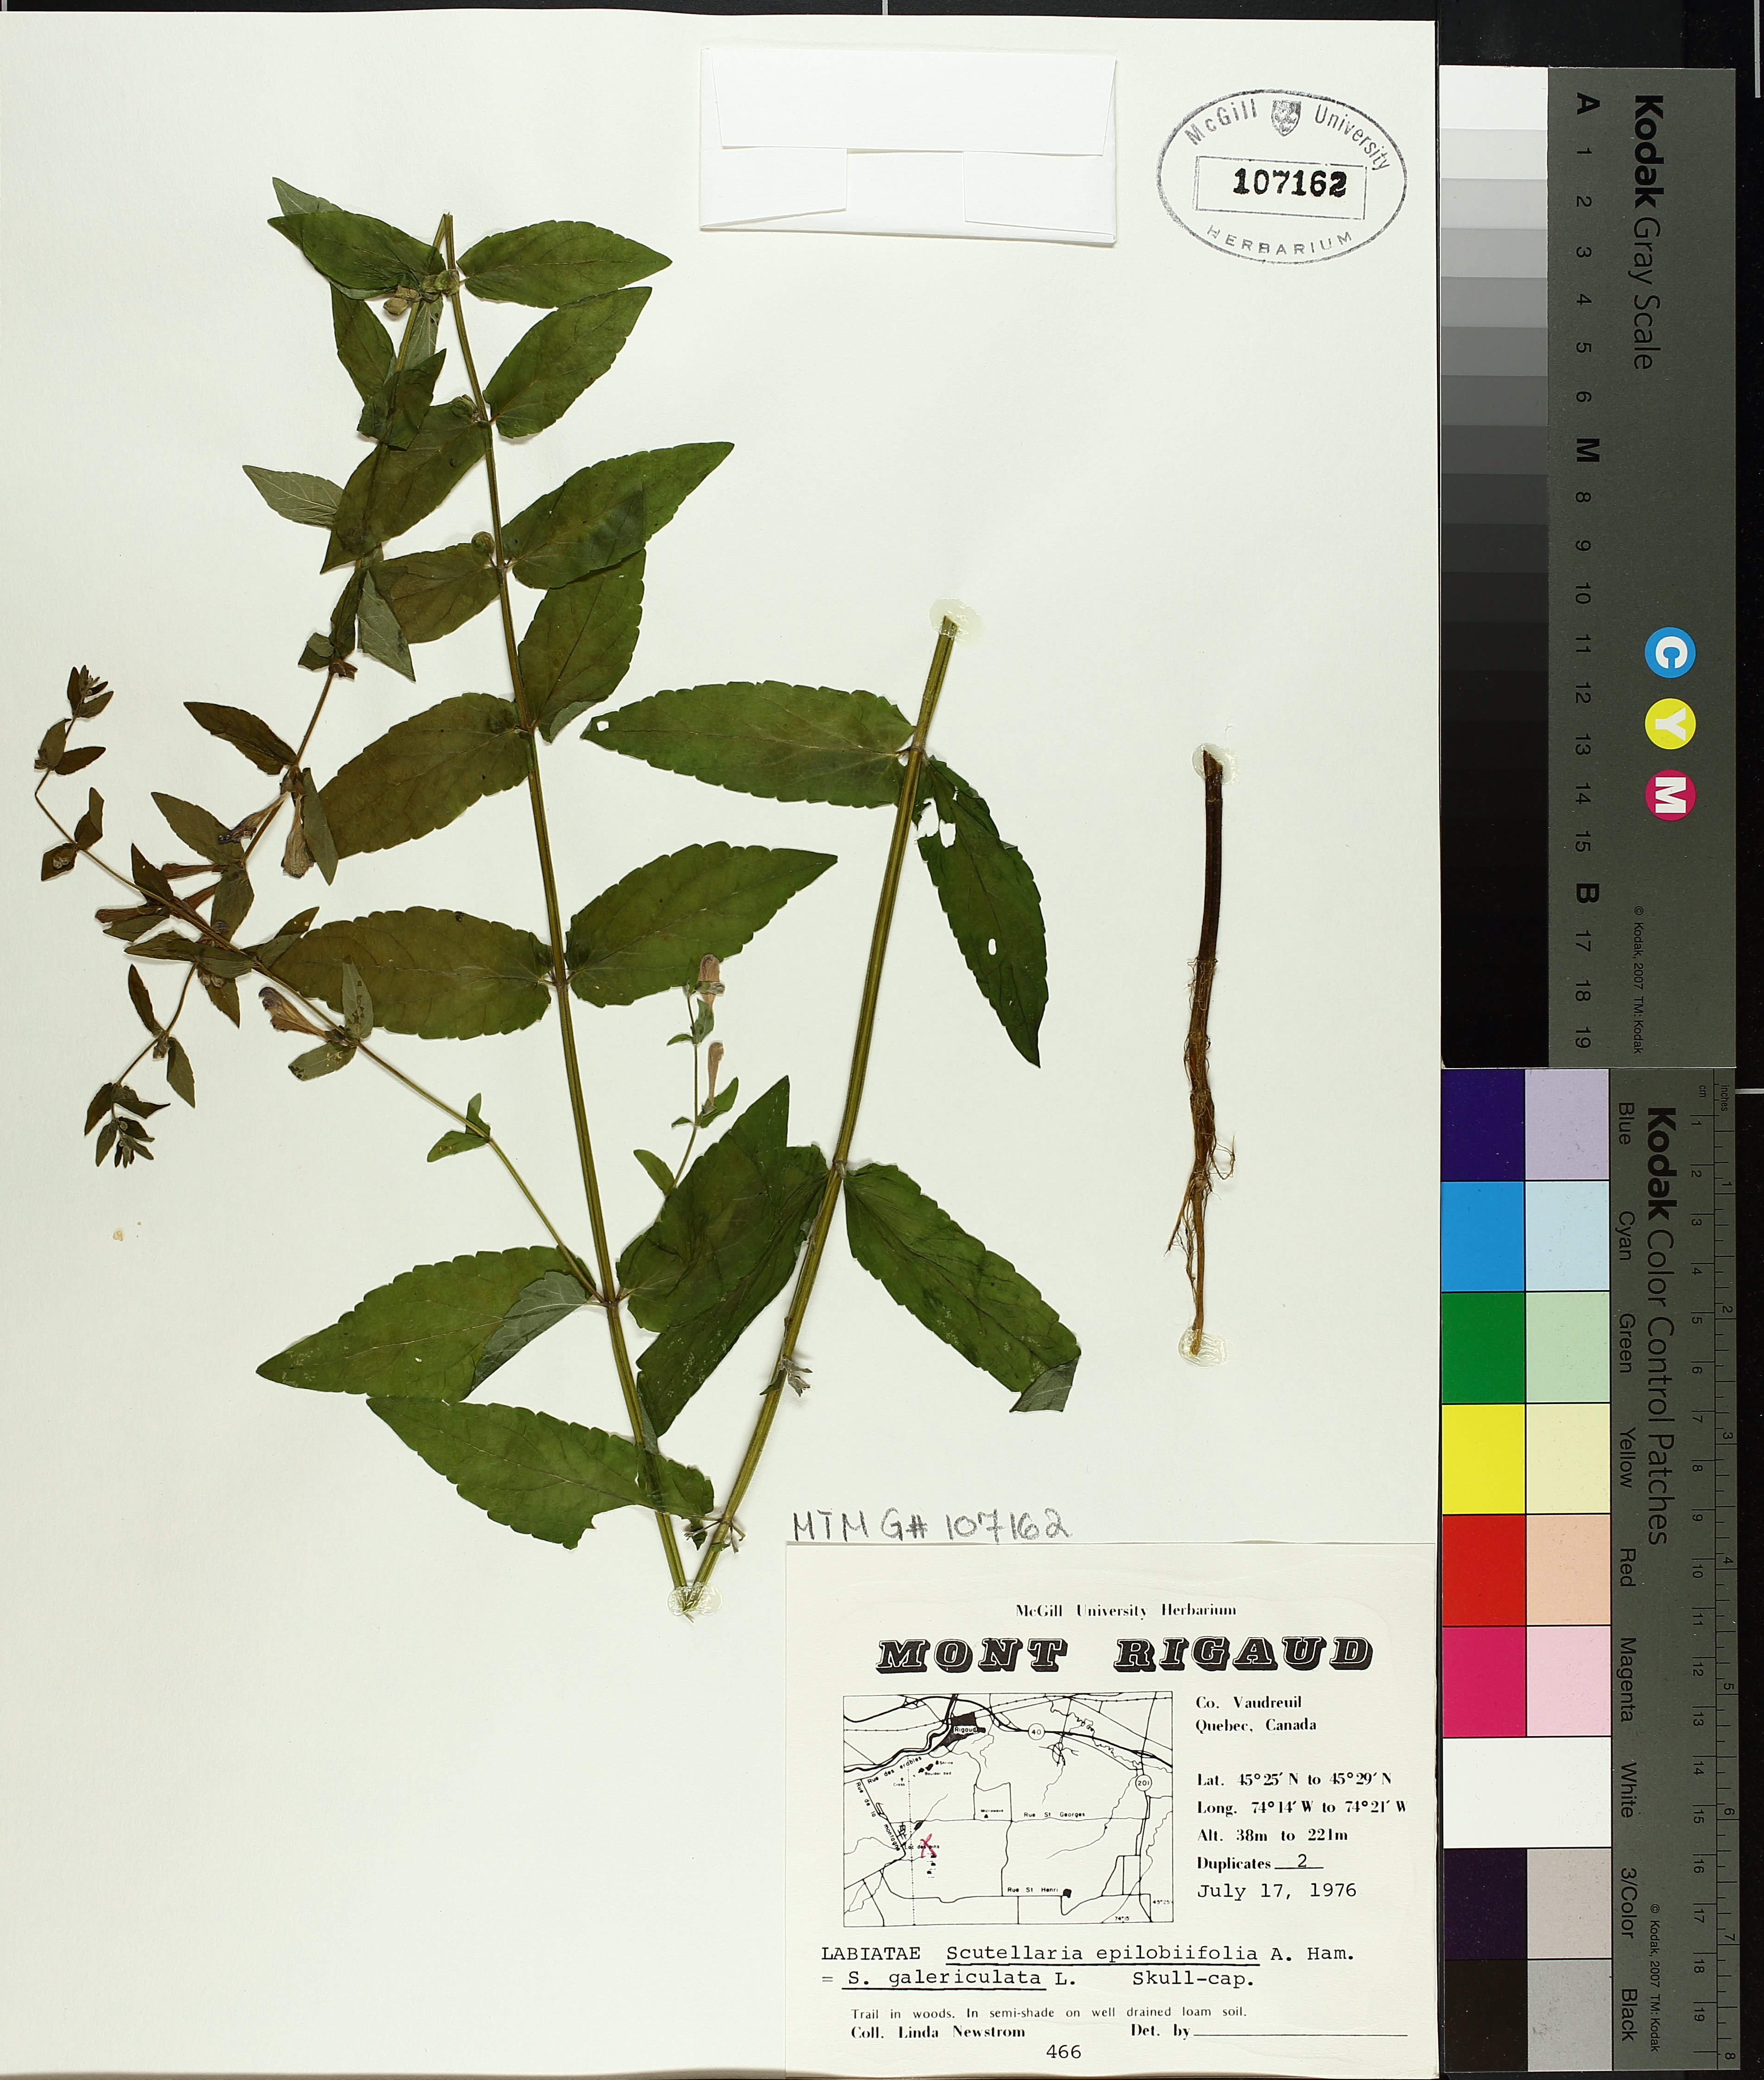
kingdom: Plantae
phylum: Tracheophyta
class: Magnoliopsida
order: Lamiales
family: Lamiaceae
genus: Scutellaria
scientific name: Scutellaria galericulata
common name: Skullcap
